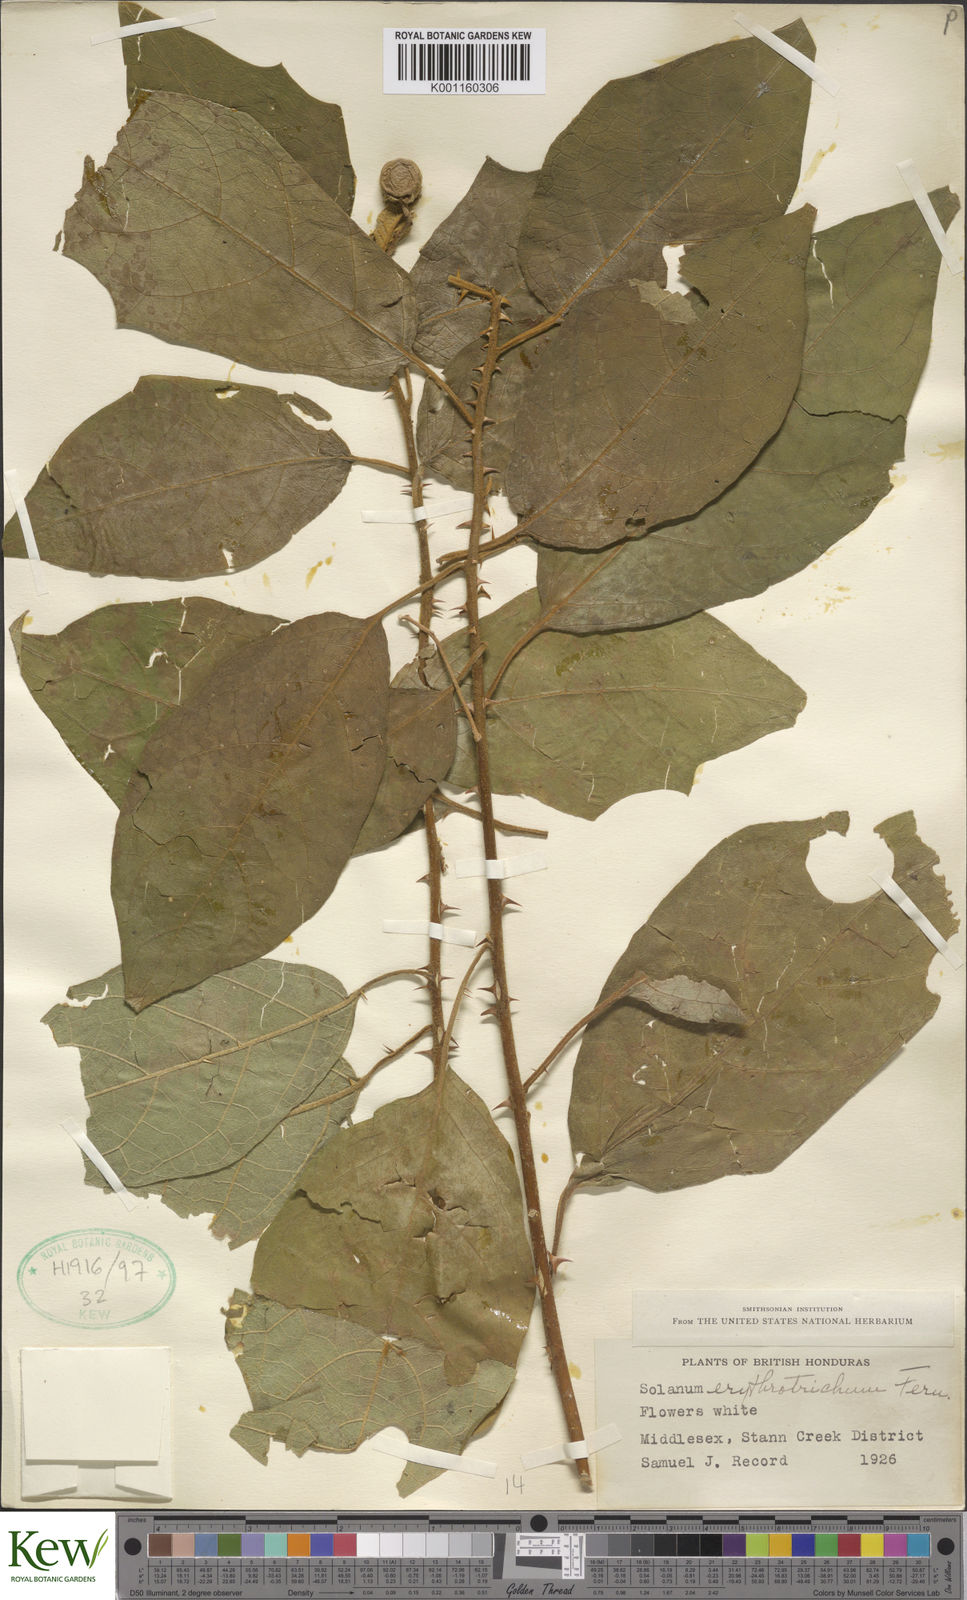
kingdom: Plantae
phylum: Tracheophyta
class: Magnoliopsida
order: Solanales
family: Solanaceae
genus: Solanum
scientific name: Solanum erythrotrichum
